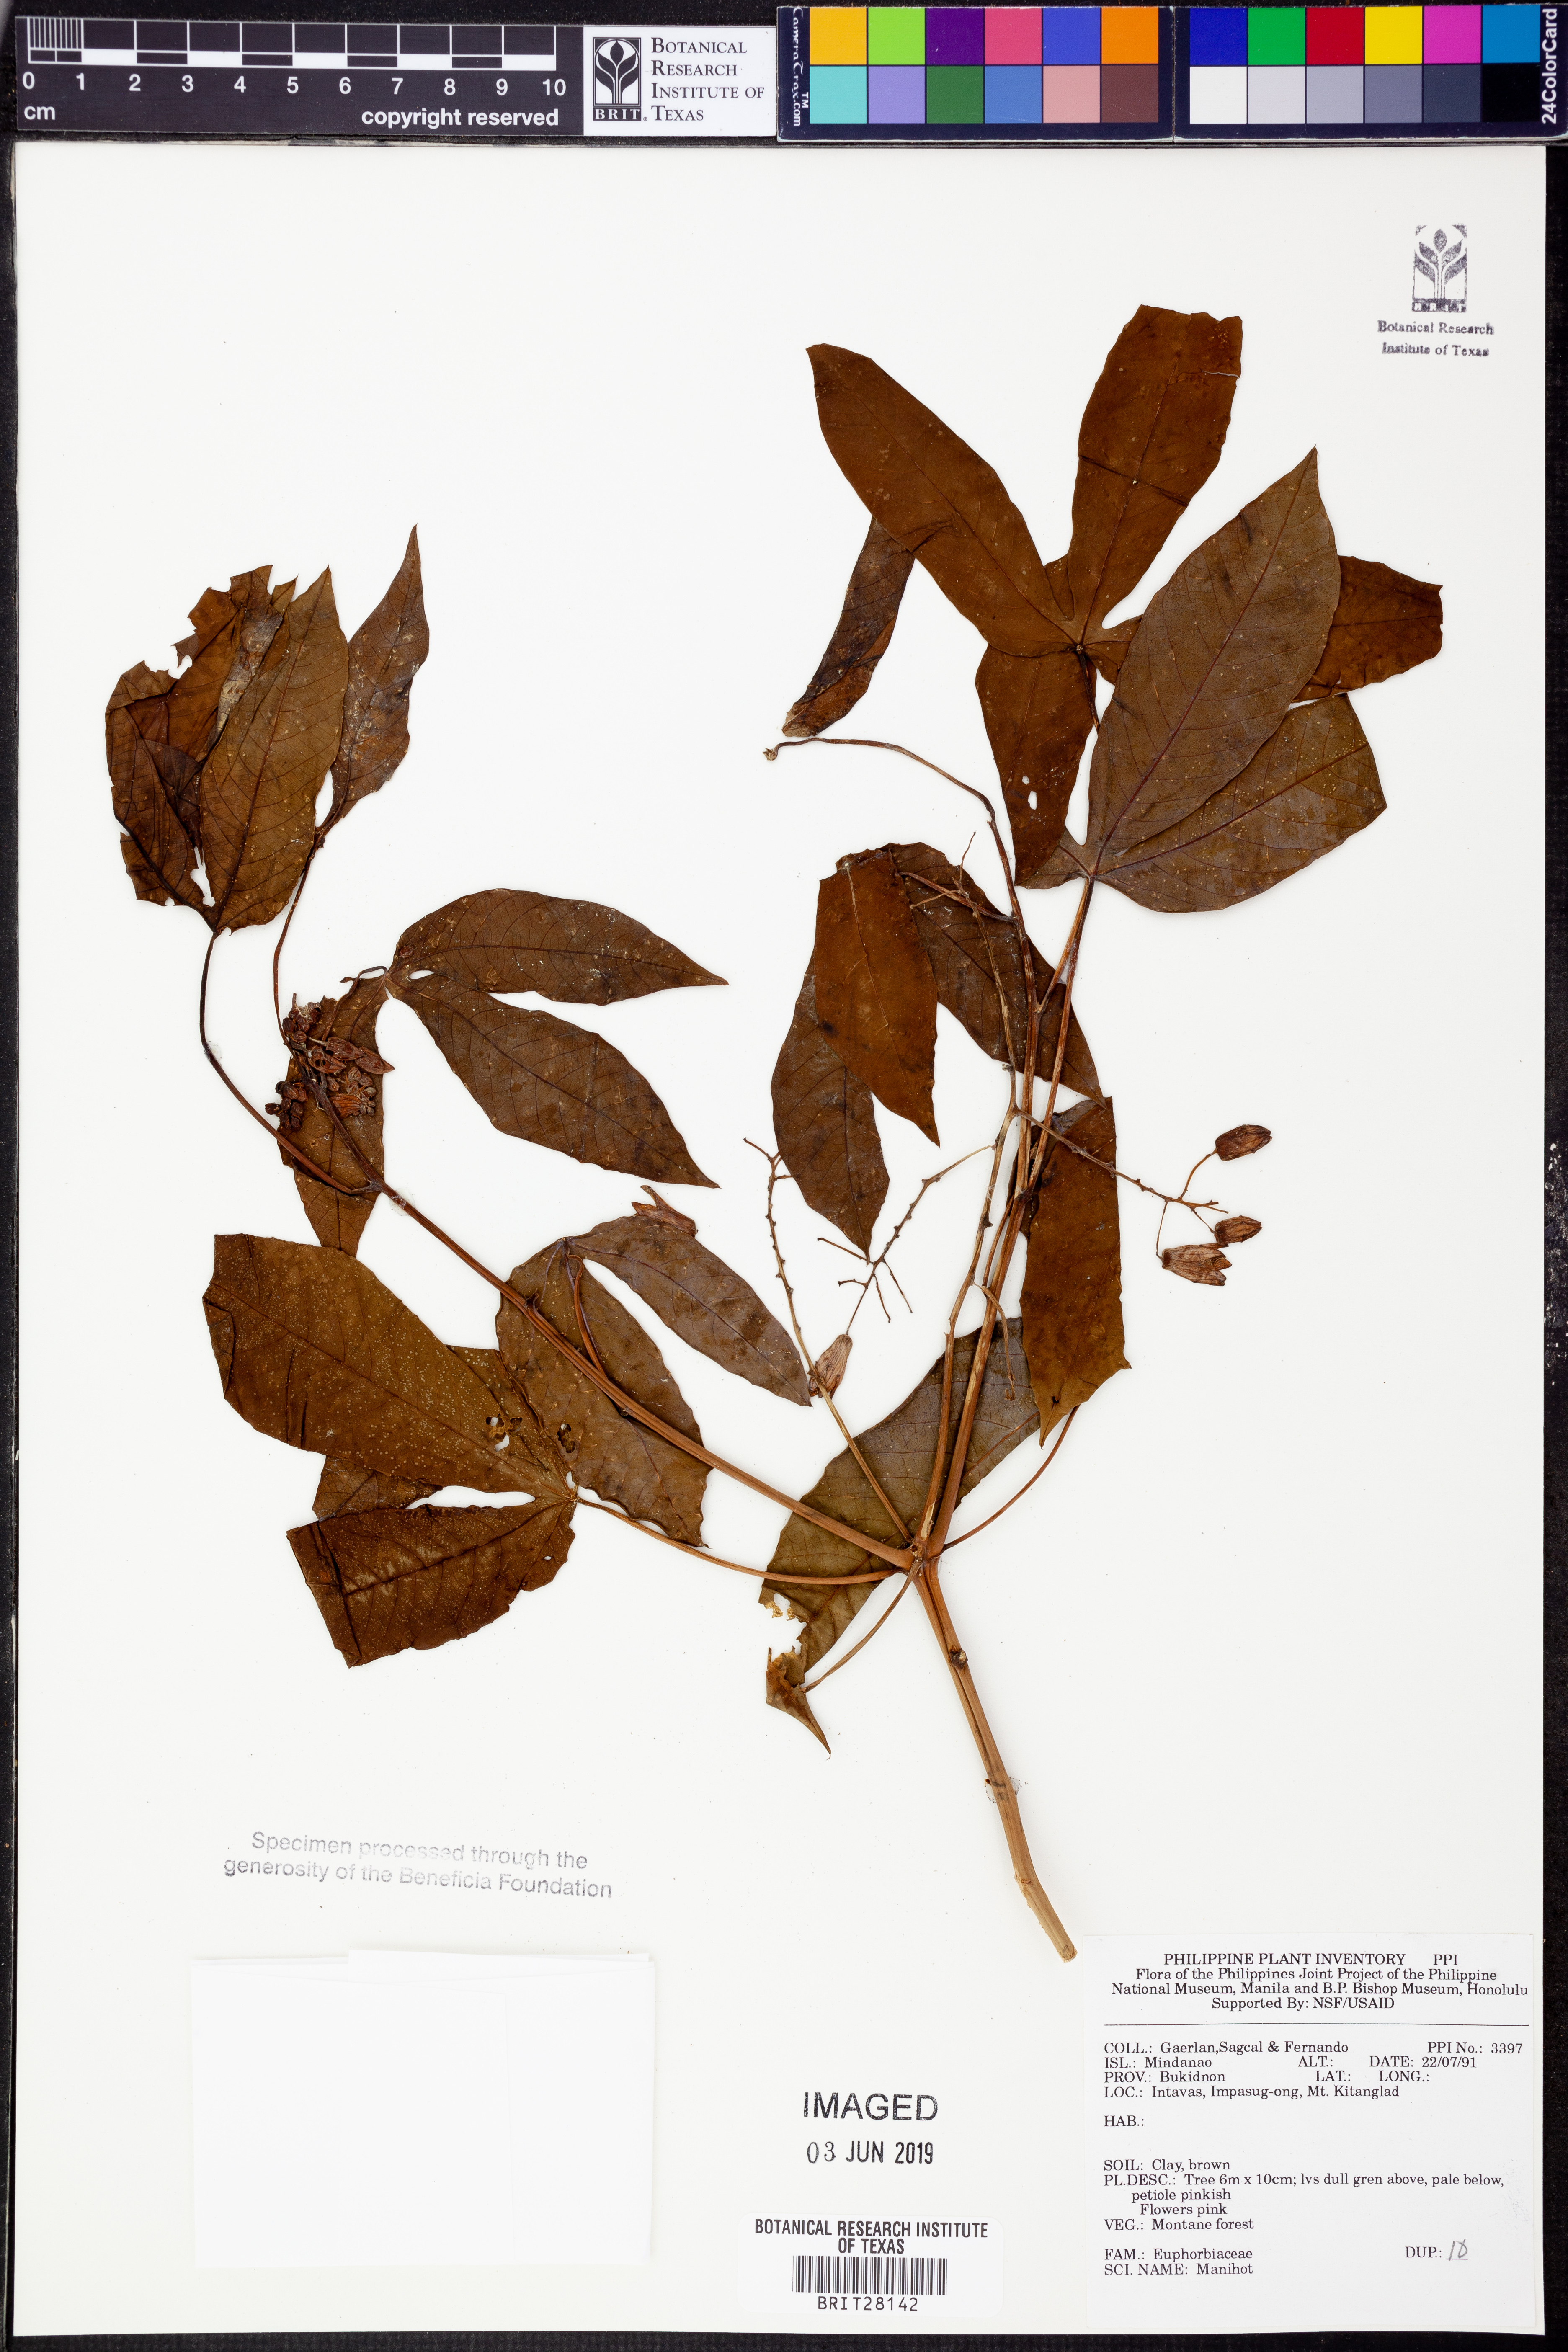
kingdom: Plantae
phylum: Tracheophyta
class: Magnoliopsida
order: Malpighiales
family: Euphorbiaceae
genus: Manihot
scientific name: Manihot
